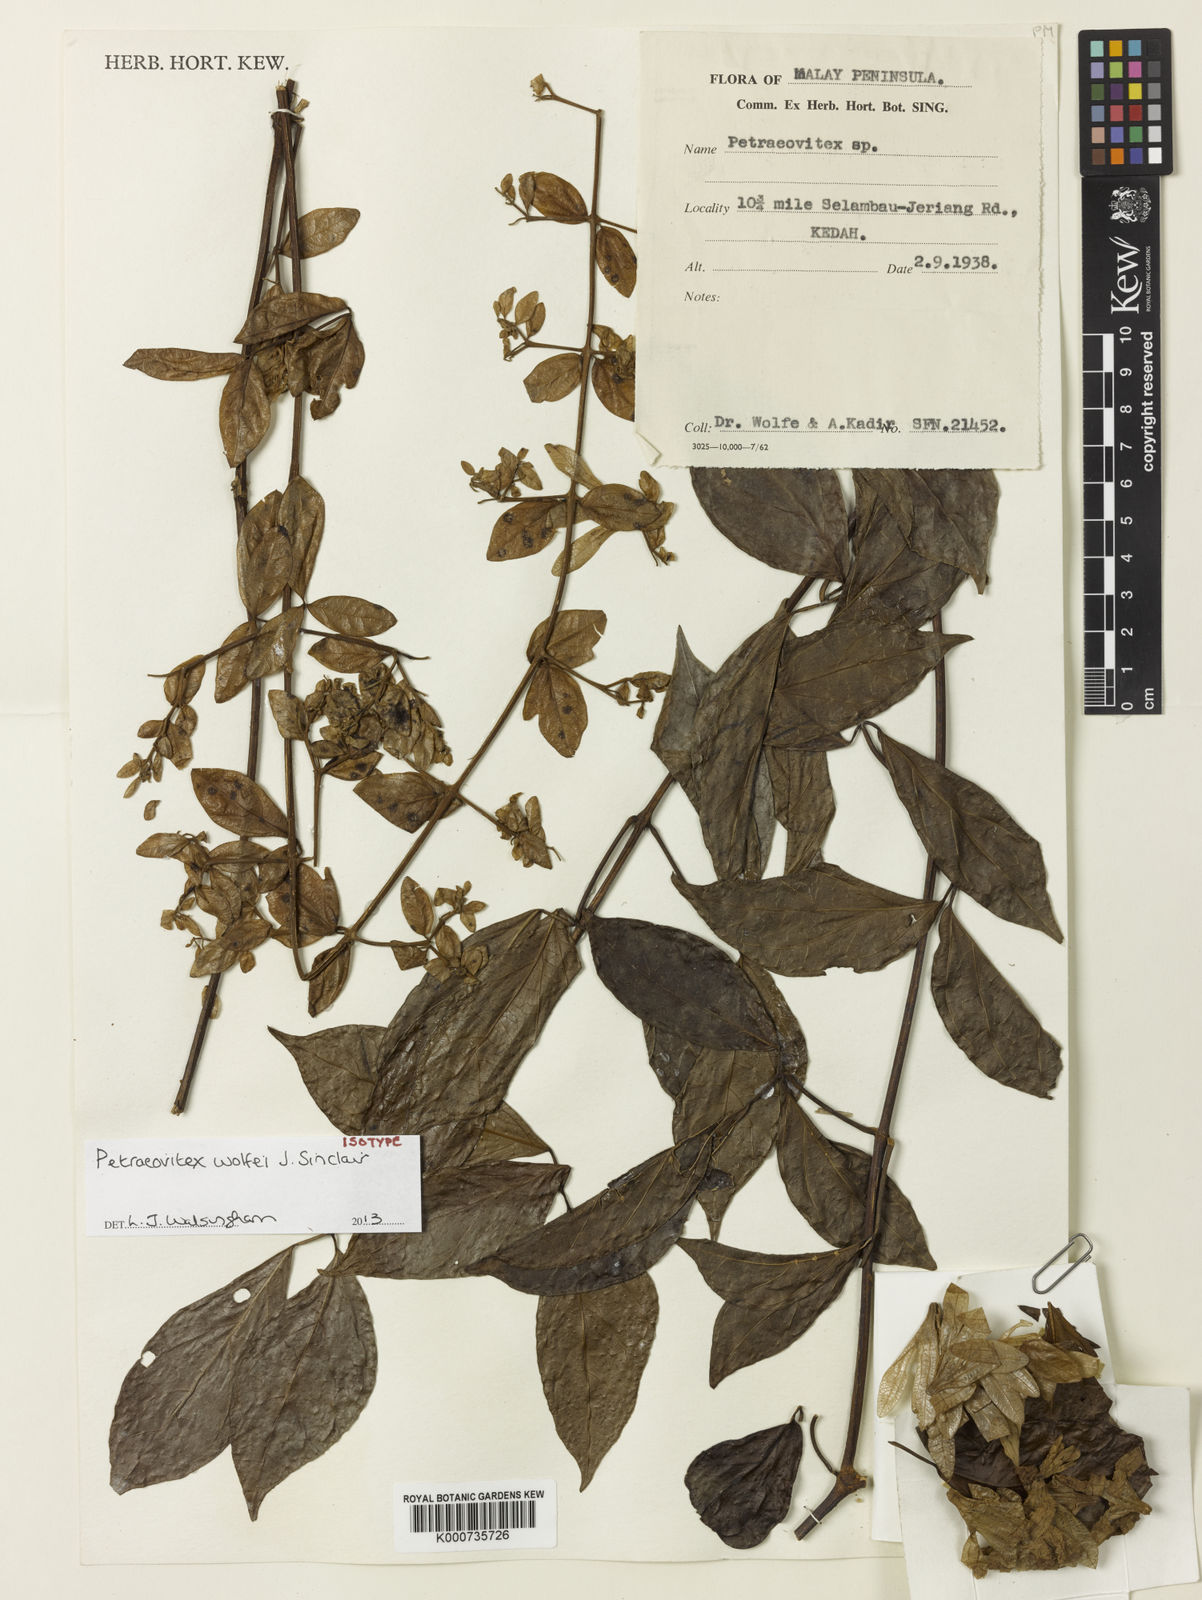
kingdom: Plantae
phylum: Tracheophyta
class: Magnoliopsida
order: Lamiales
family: Lamiaceae
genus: Petraeovitex
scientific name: Petraeovitex wolfei
